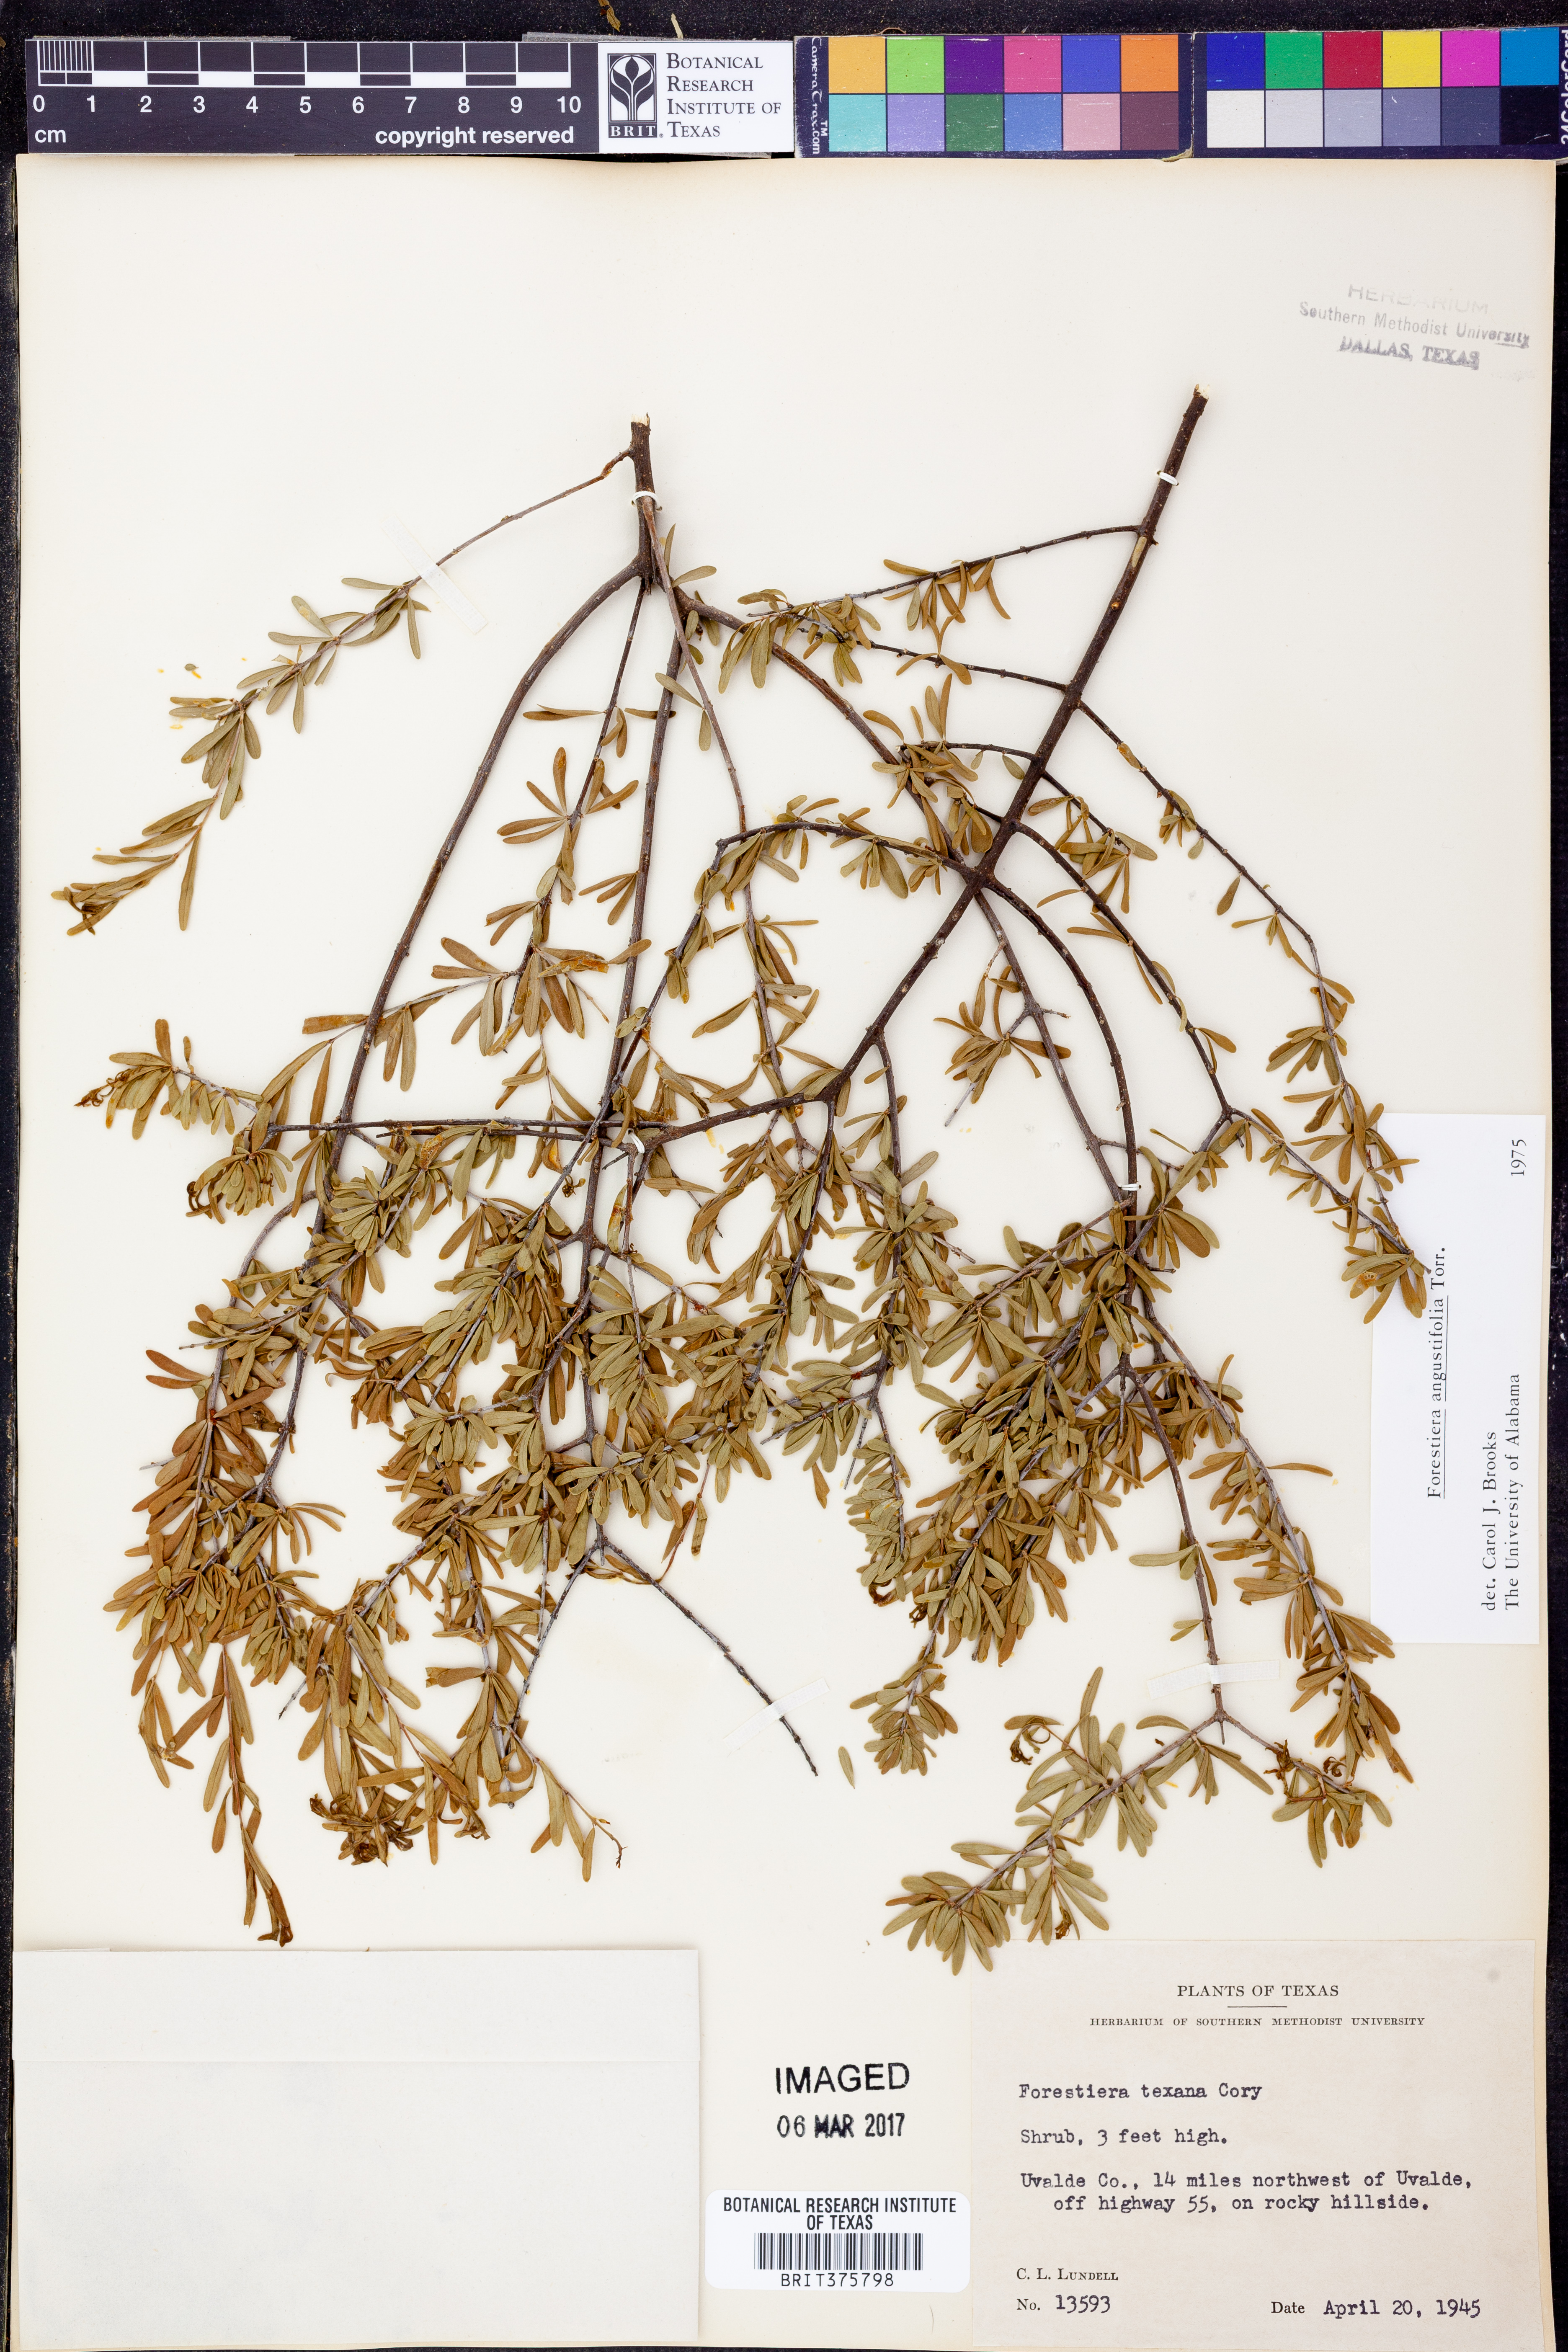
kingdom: Plantae
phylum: Tracheophyta
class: Magnoliopsida
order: Lamiales
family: Oleaceae
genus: Forestiera
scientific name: Forestiera angustifolia
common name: Elbowbush
